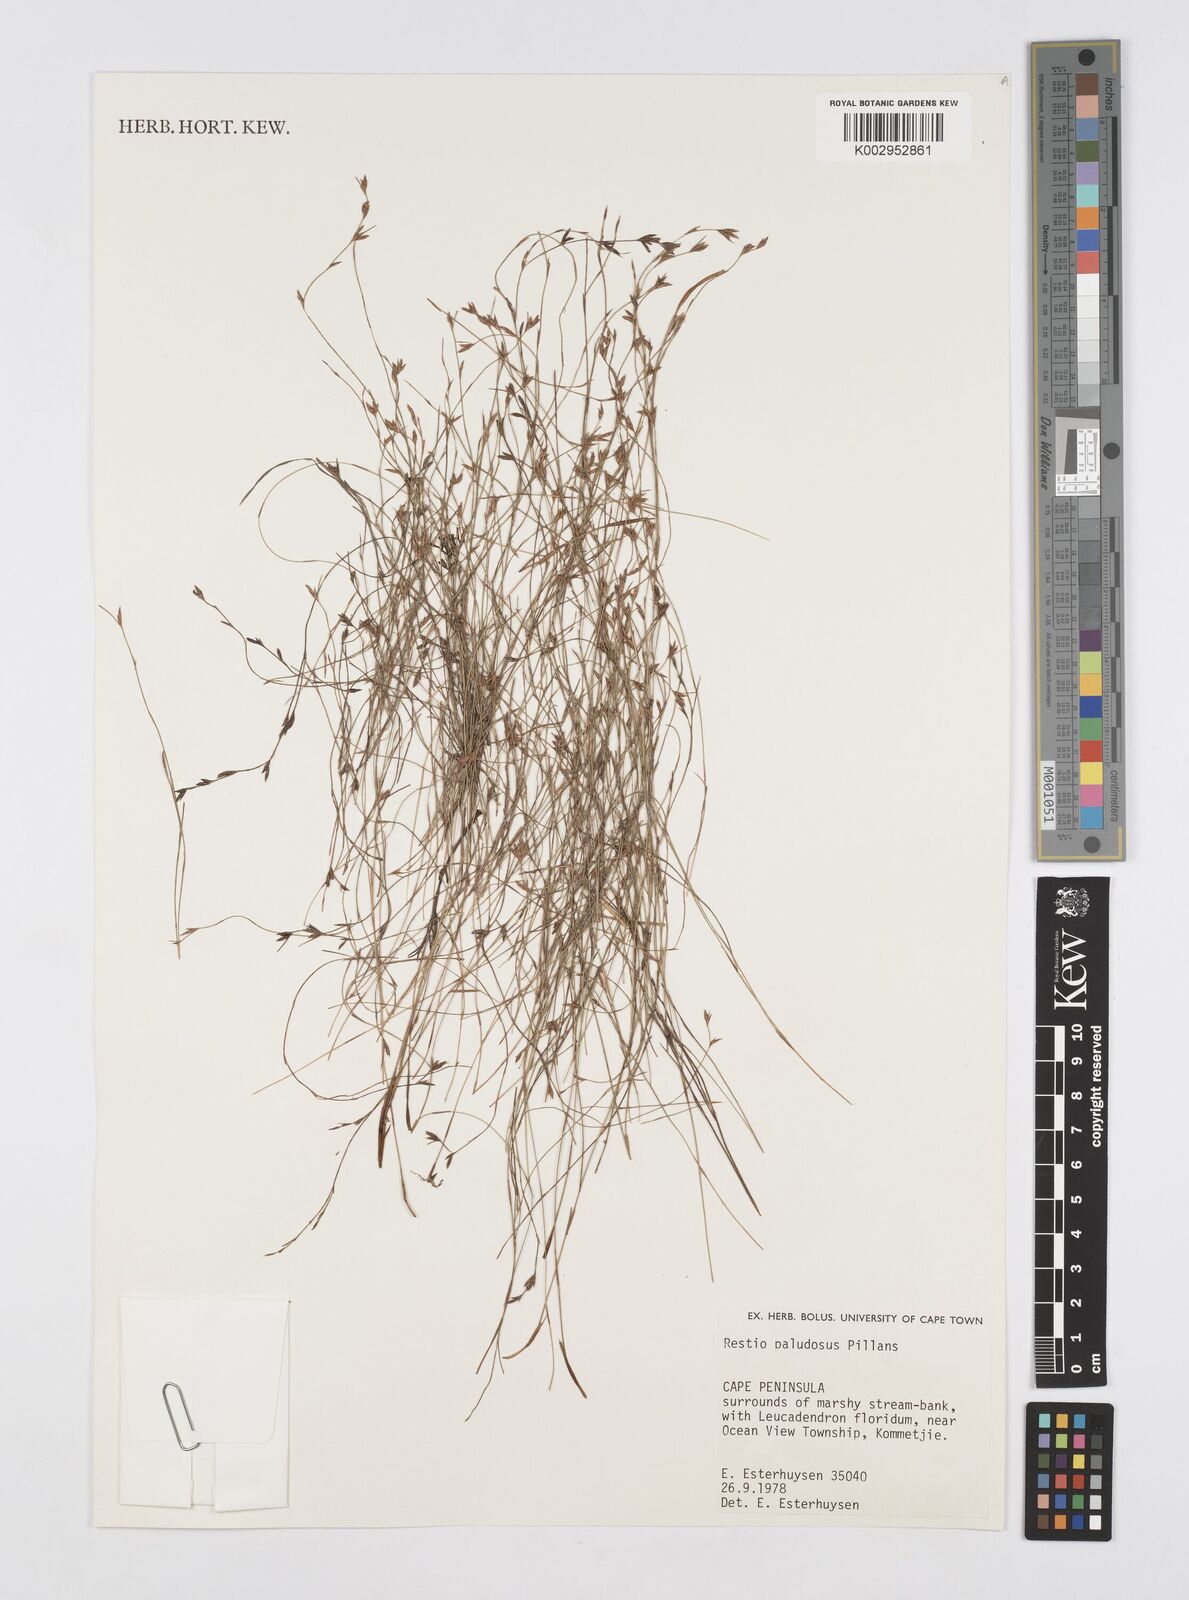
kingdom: Plantae
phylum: Tracheophyta
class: Liliopsida
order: Poales
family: Restionaceae
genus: Restio
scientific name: Restio paludosus
